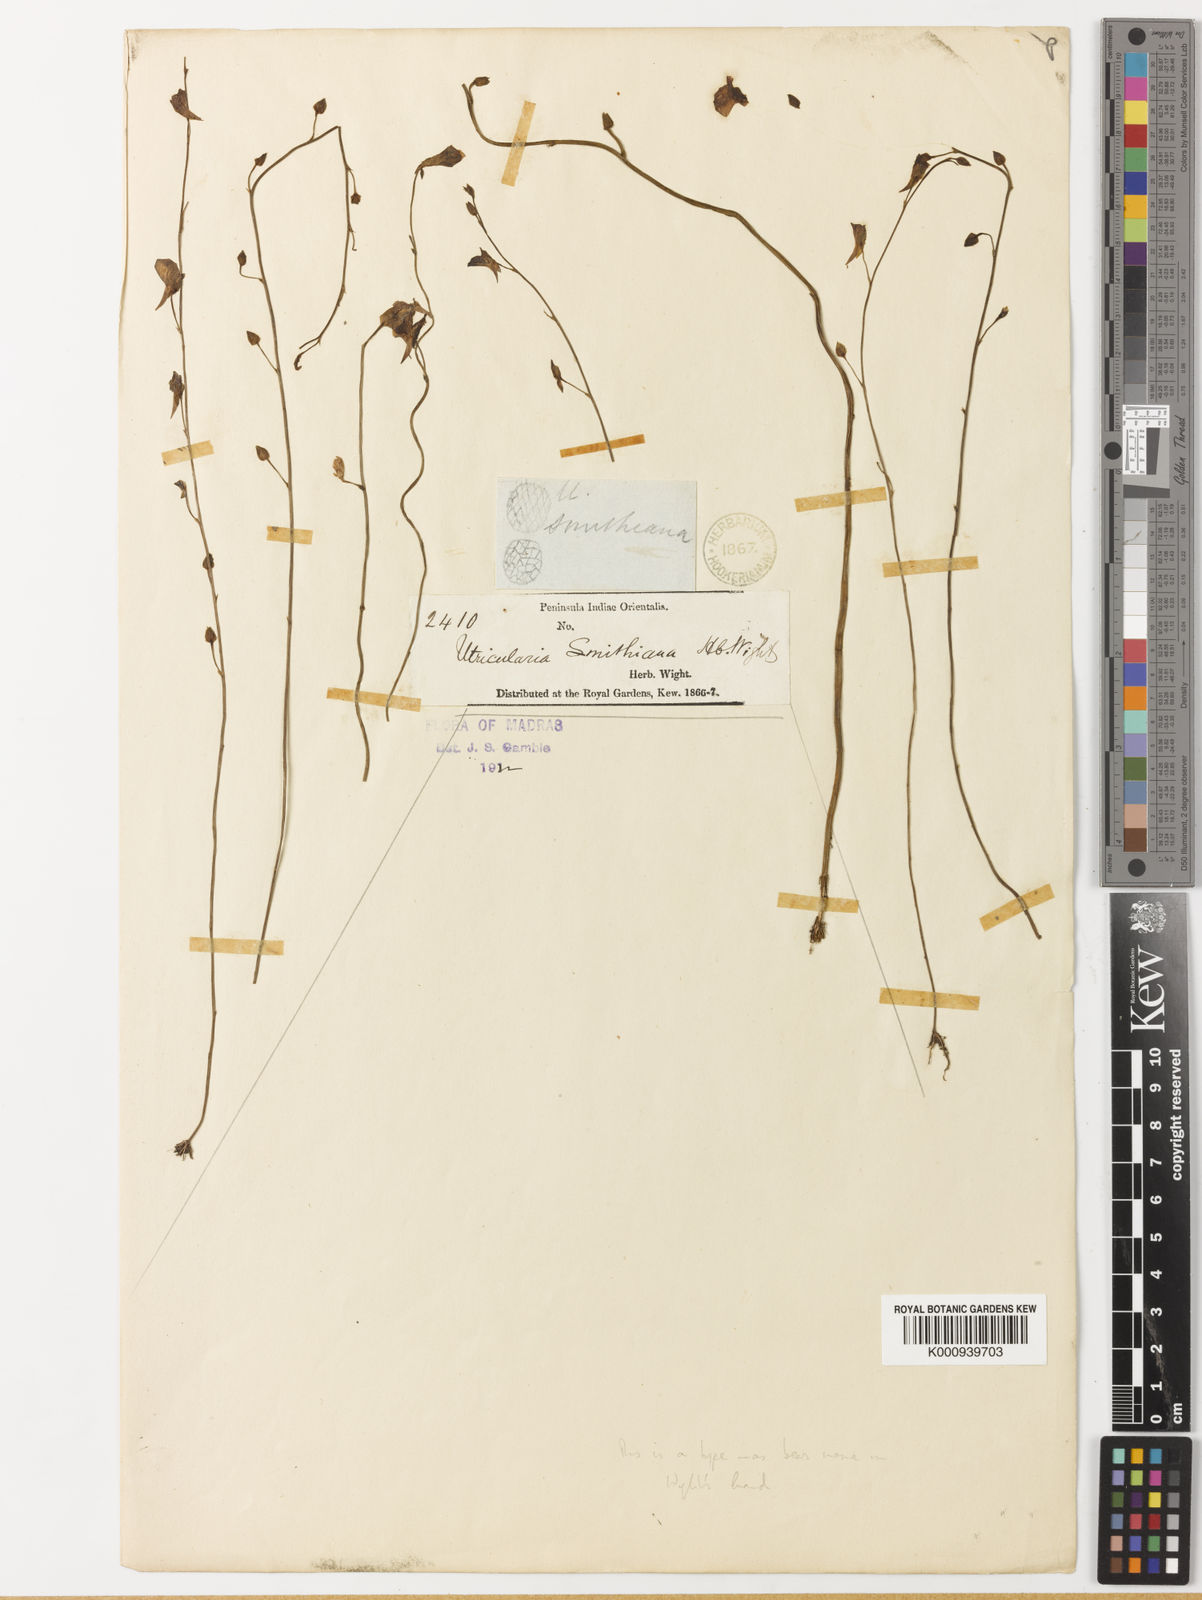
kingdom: Plantae
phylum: Tracheophyta
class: Magnoliopsida
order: Lamiales
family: Lentibulariaceae
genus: Utricularia
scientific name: Utricularia smithiana
